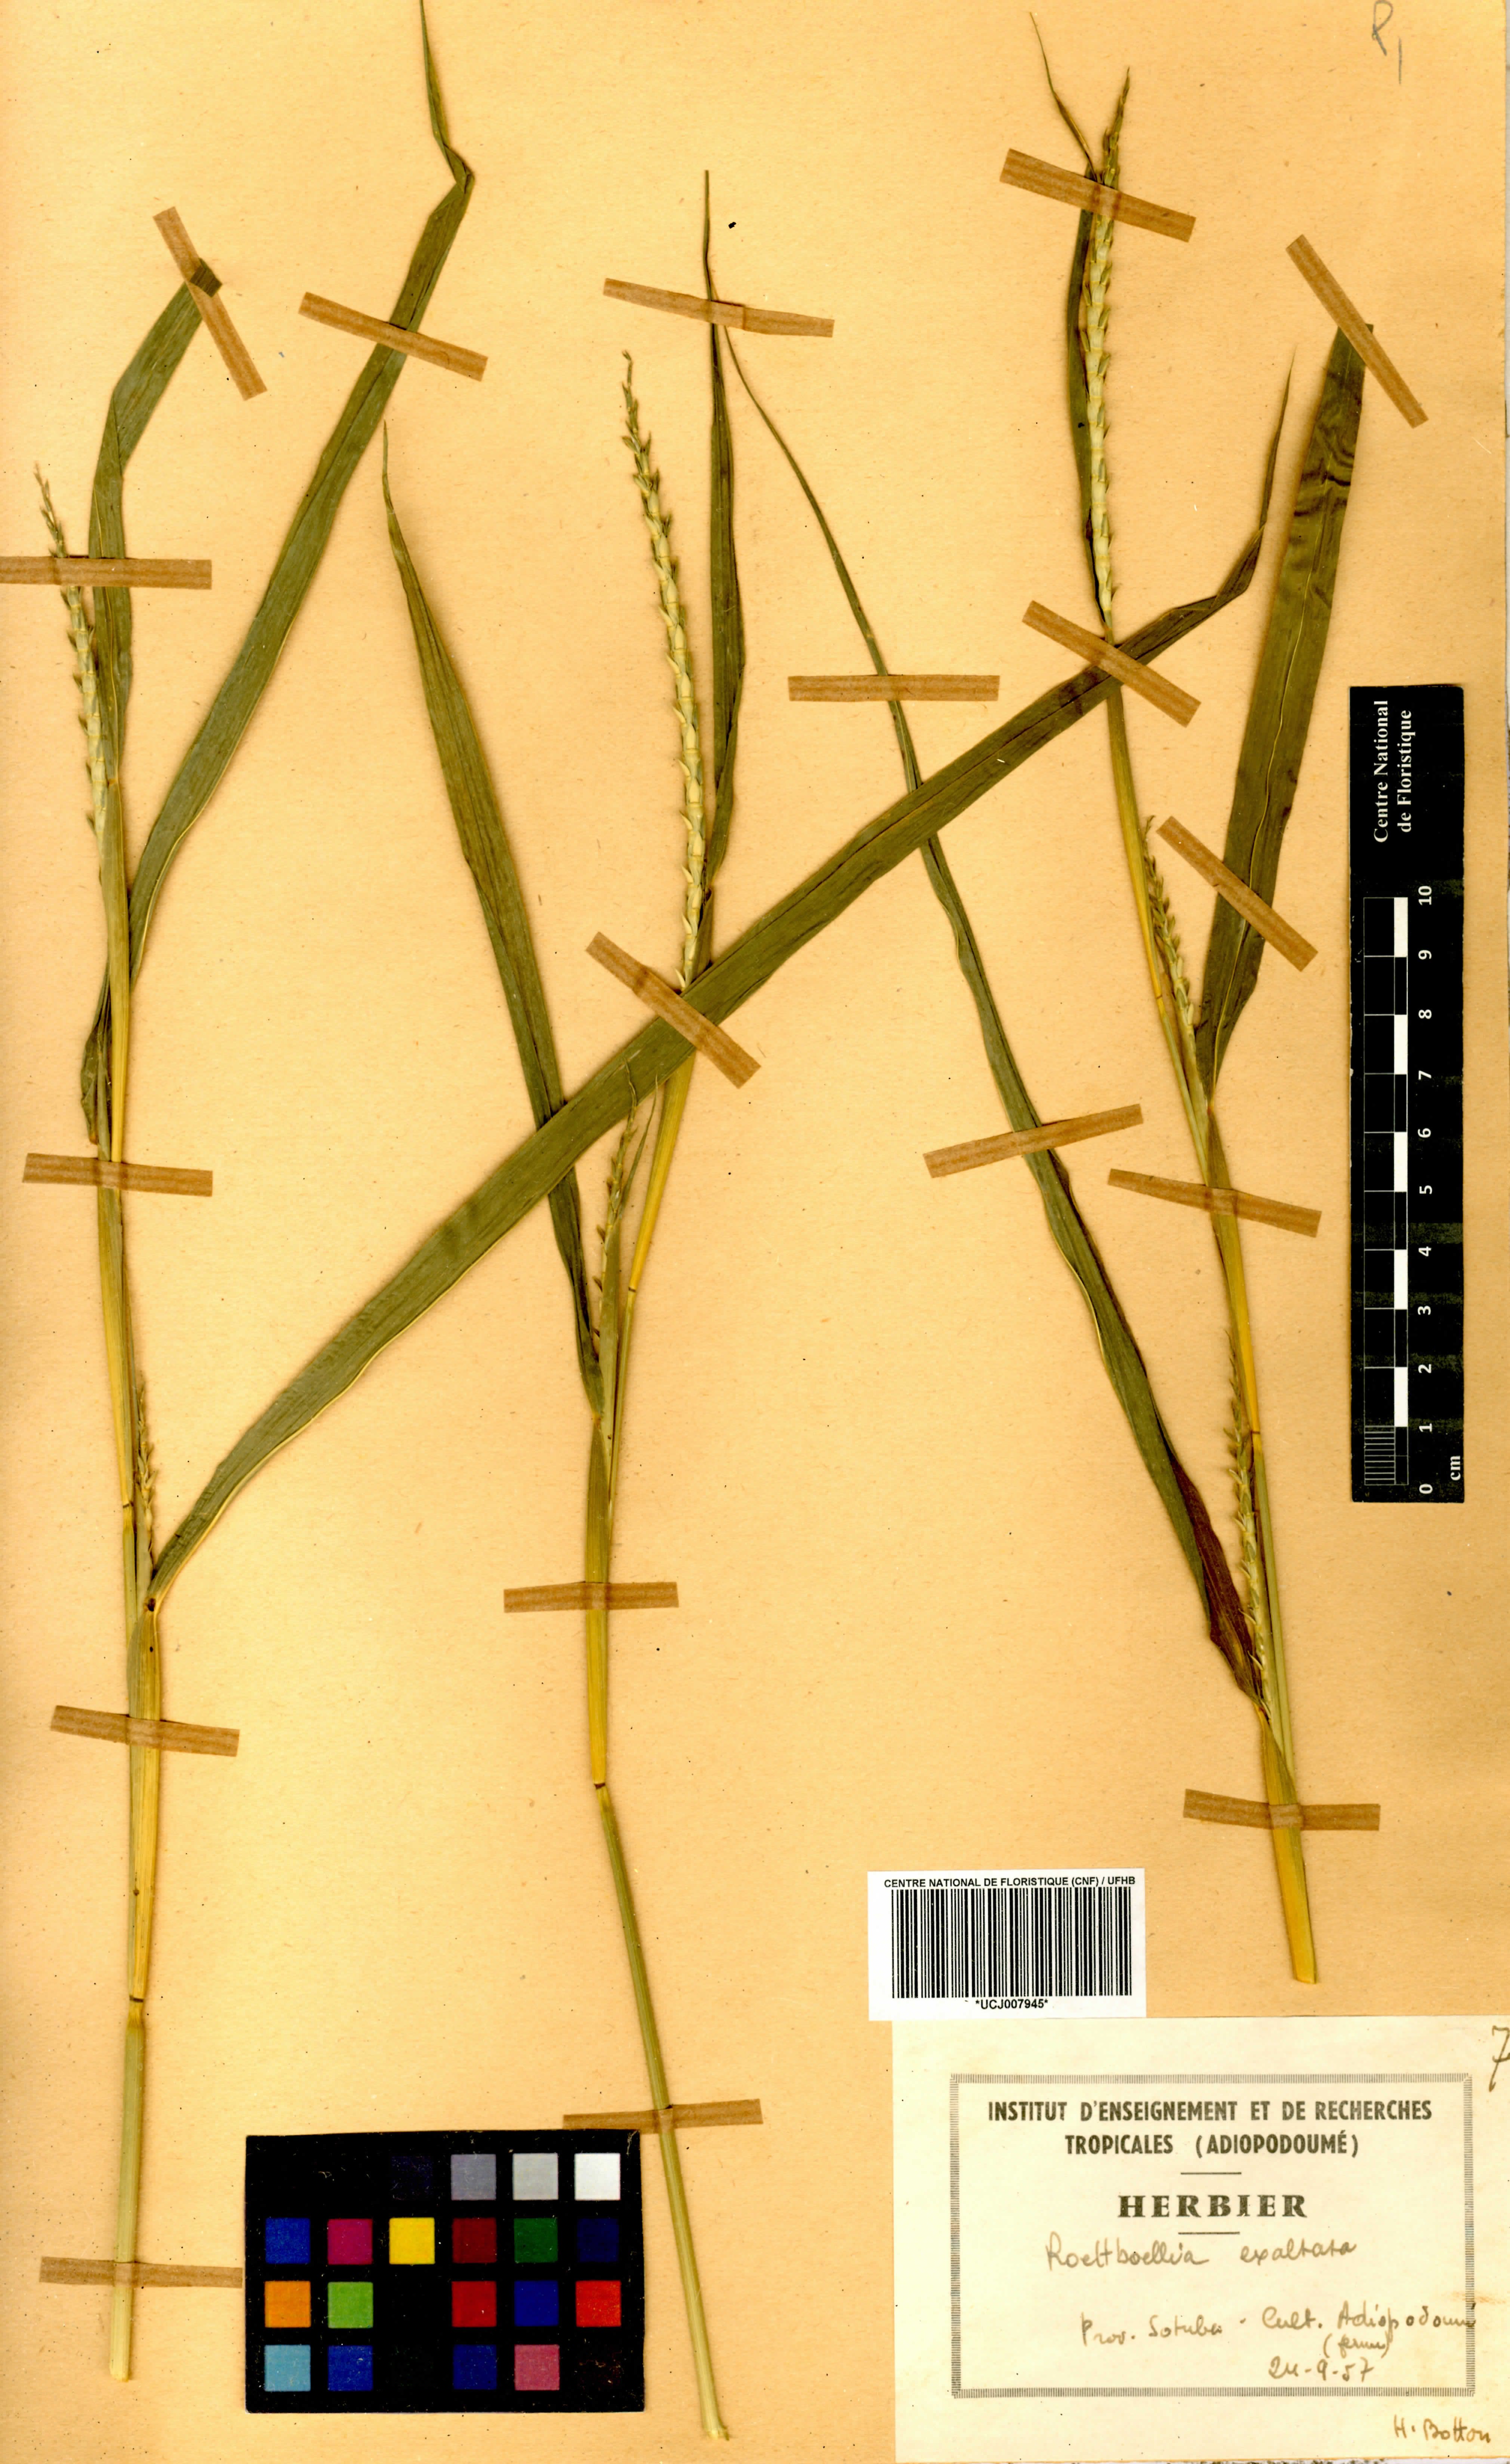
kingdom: Plantae
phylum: Tracheophyta
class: Liliopsida
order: Poales
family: Poaceae
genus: Rottboellia
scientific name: Rottboellia
